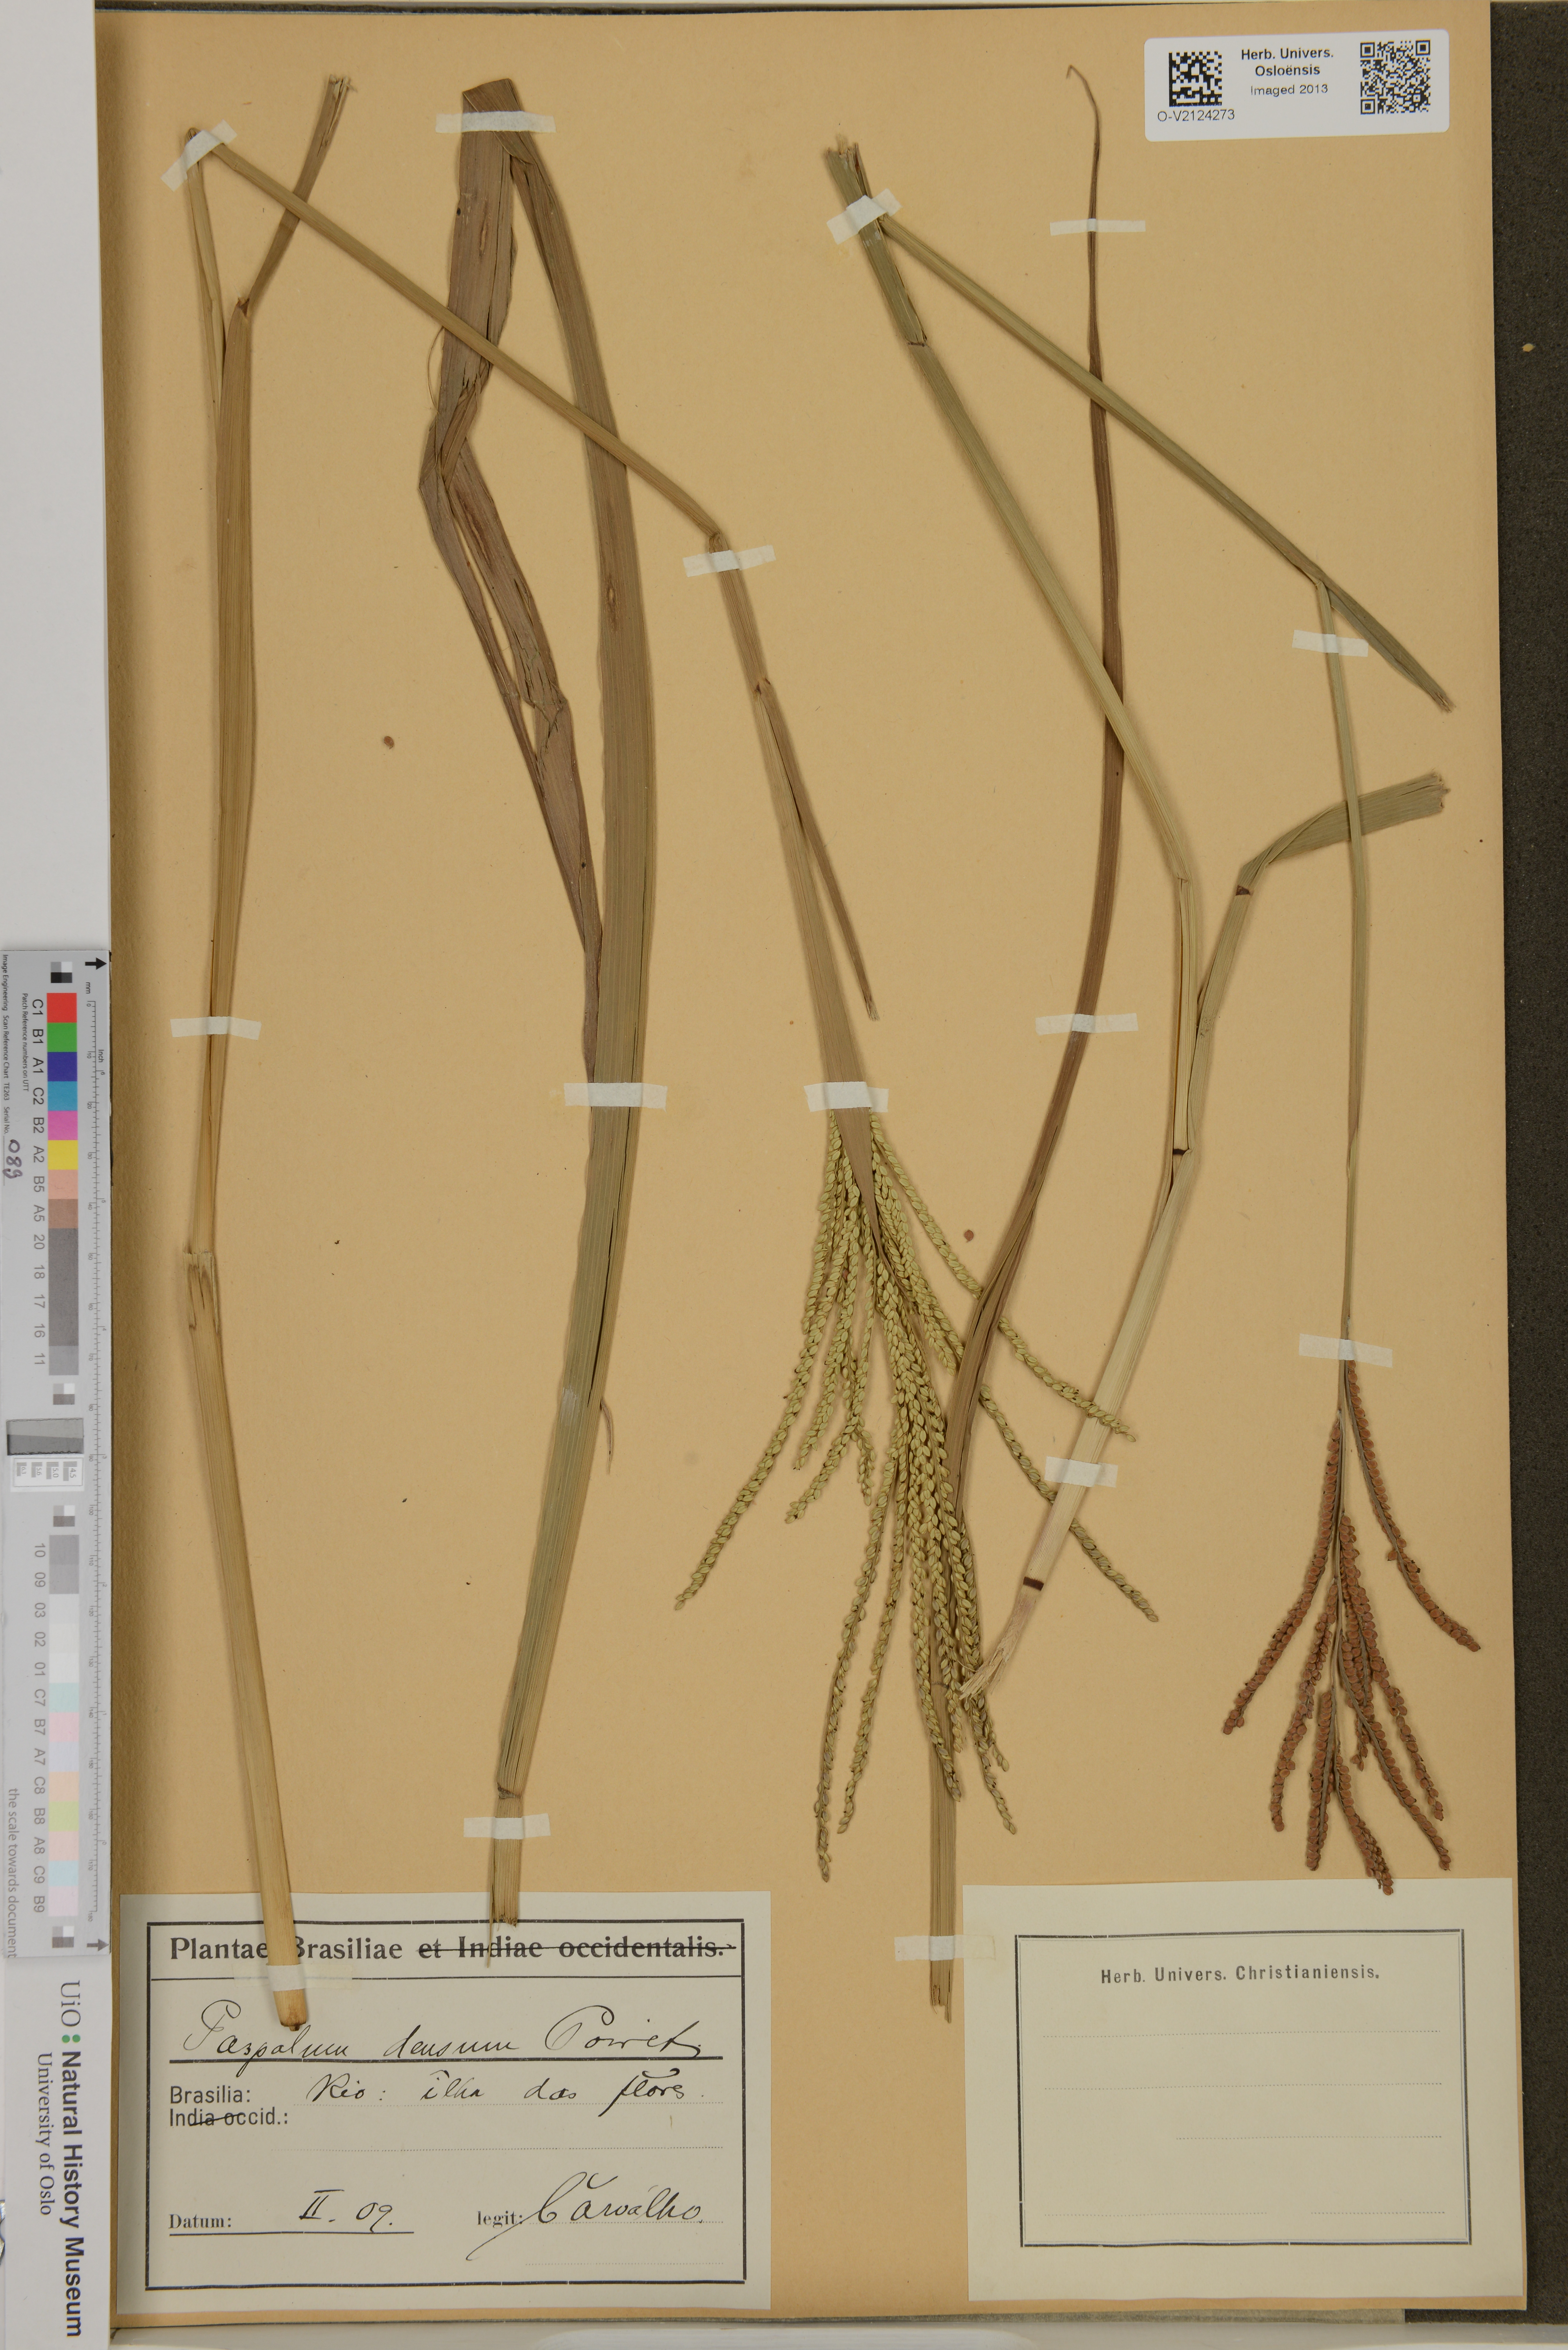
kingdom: Plantae
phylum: Tracheophyta
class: Liliopsida
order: Poales
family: Poaceae
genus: Paspalum
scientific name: Paspalum densum
